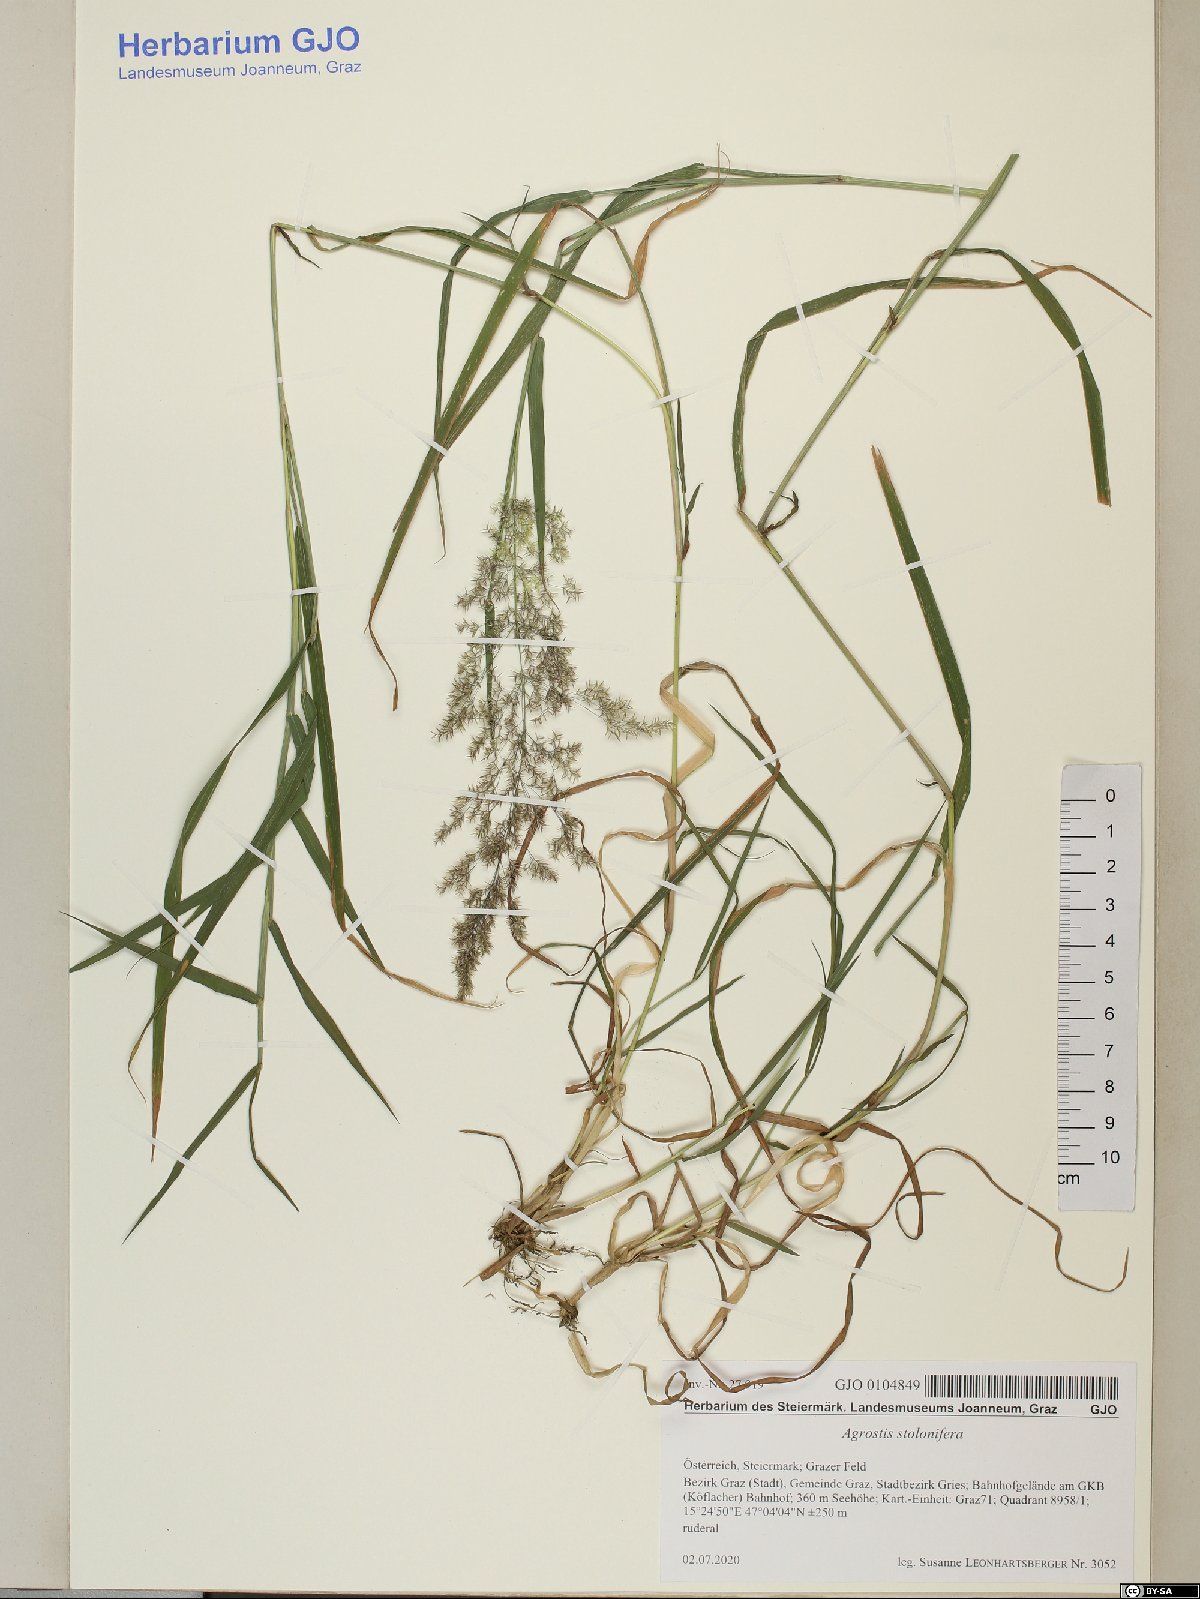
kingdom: Plantae
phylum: Tracheophyta
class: Liliopsida
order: Poales
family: Poaceae
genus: Agrostis
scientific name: Agrostis stolonifera
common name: Creeping bentgrass
